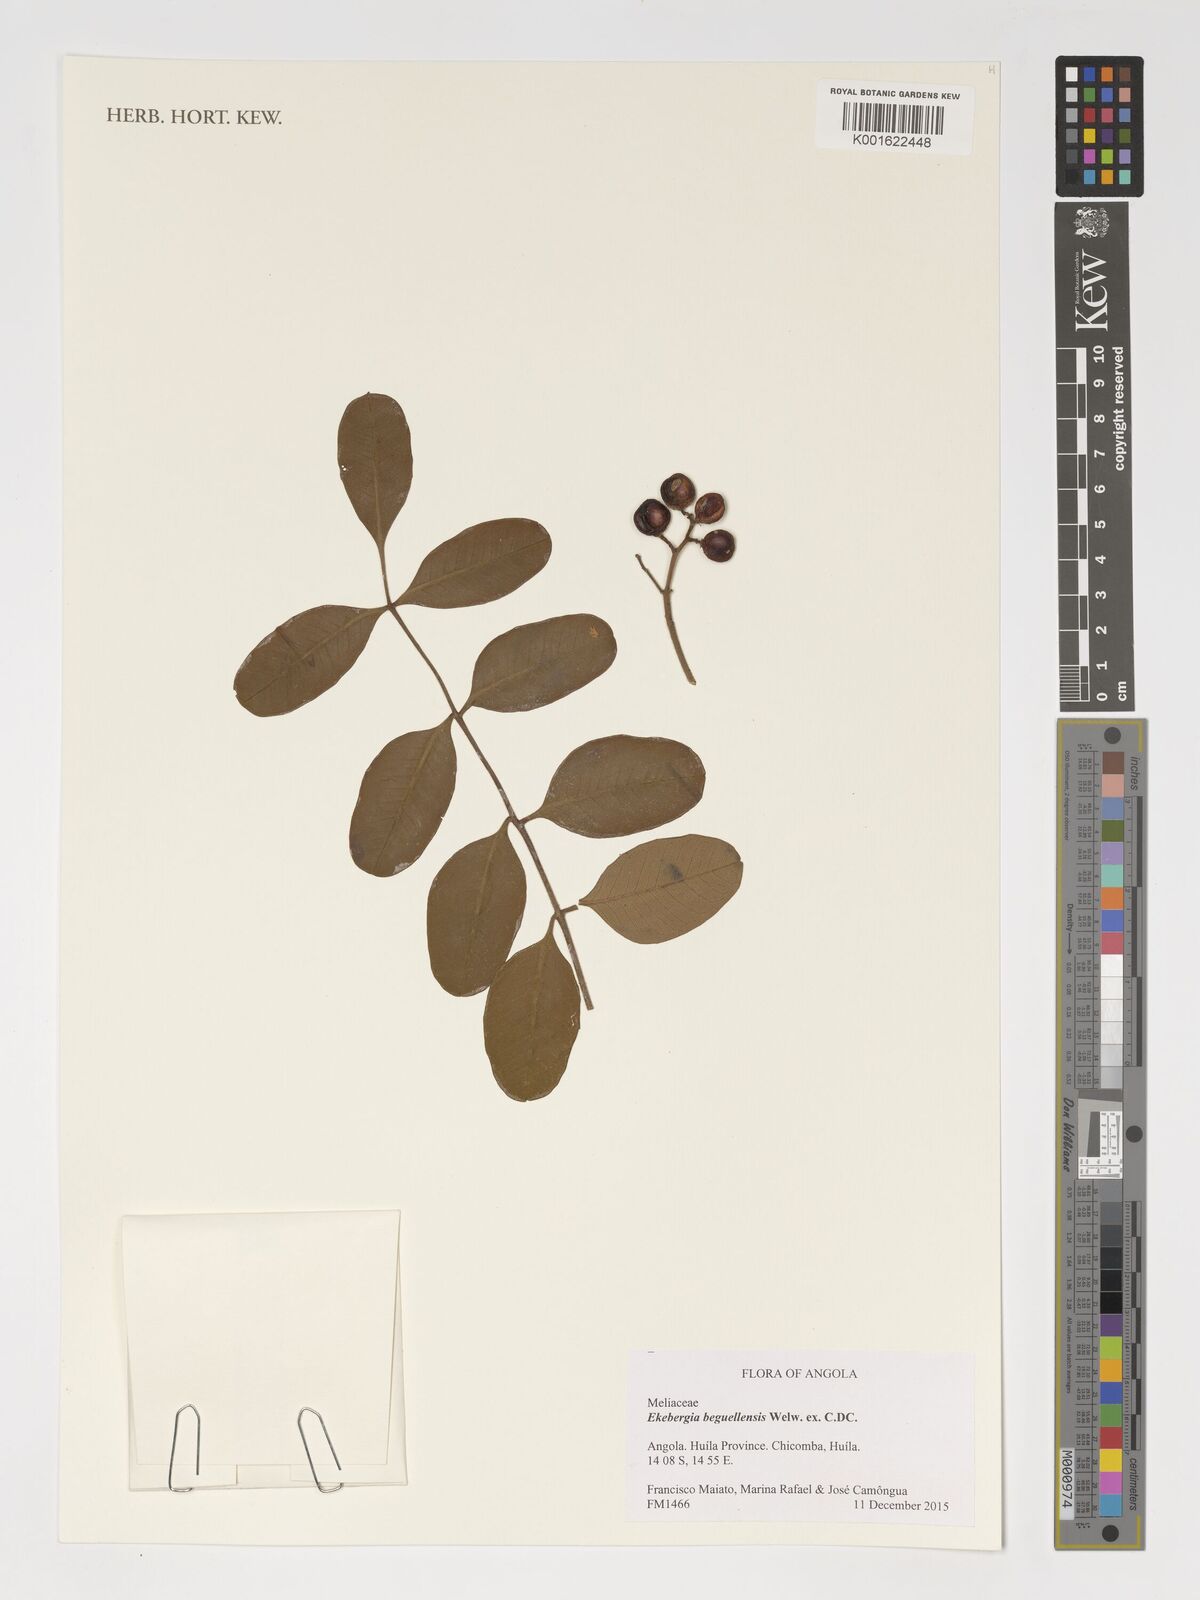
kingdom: Plantae
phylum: Tracheophyta
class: Magnoliopsida
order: Sapindales
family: Meliaceae
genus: Ekebergia
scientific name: Ekebergia benguelensis
